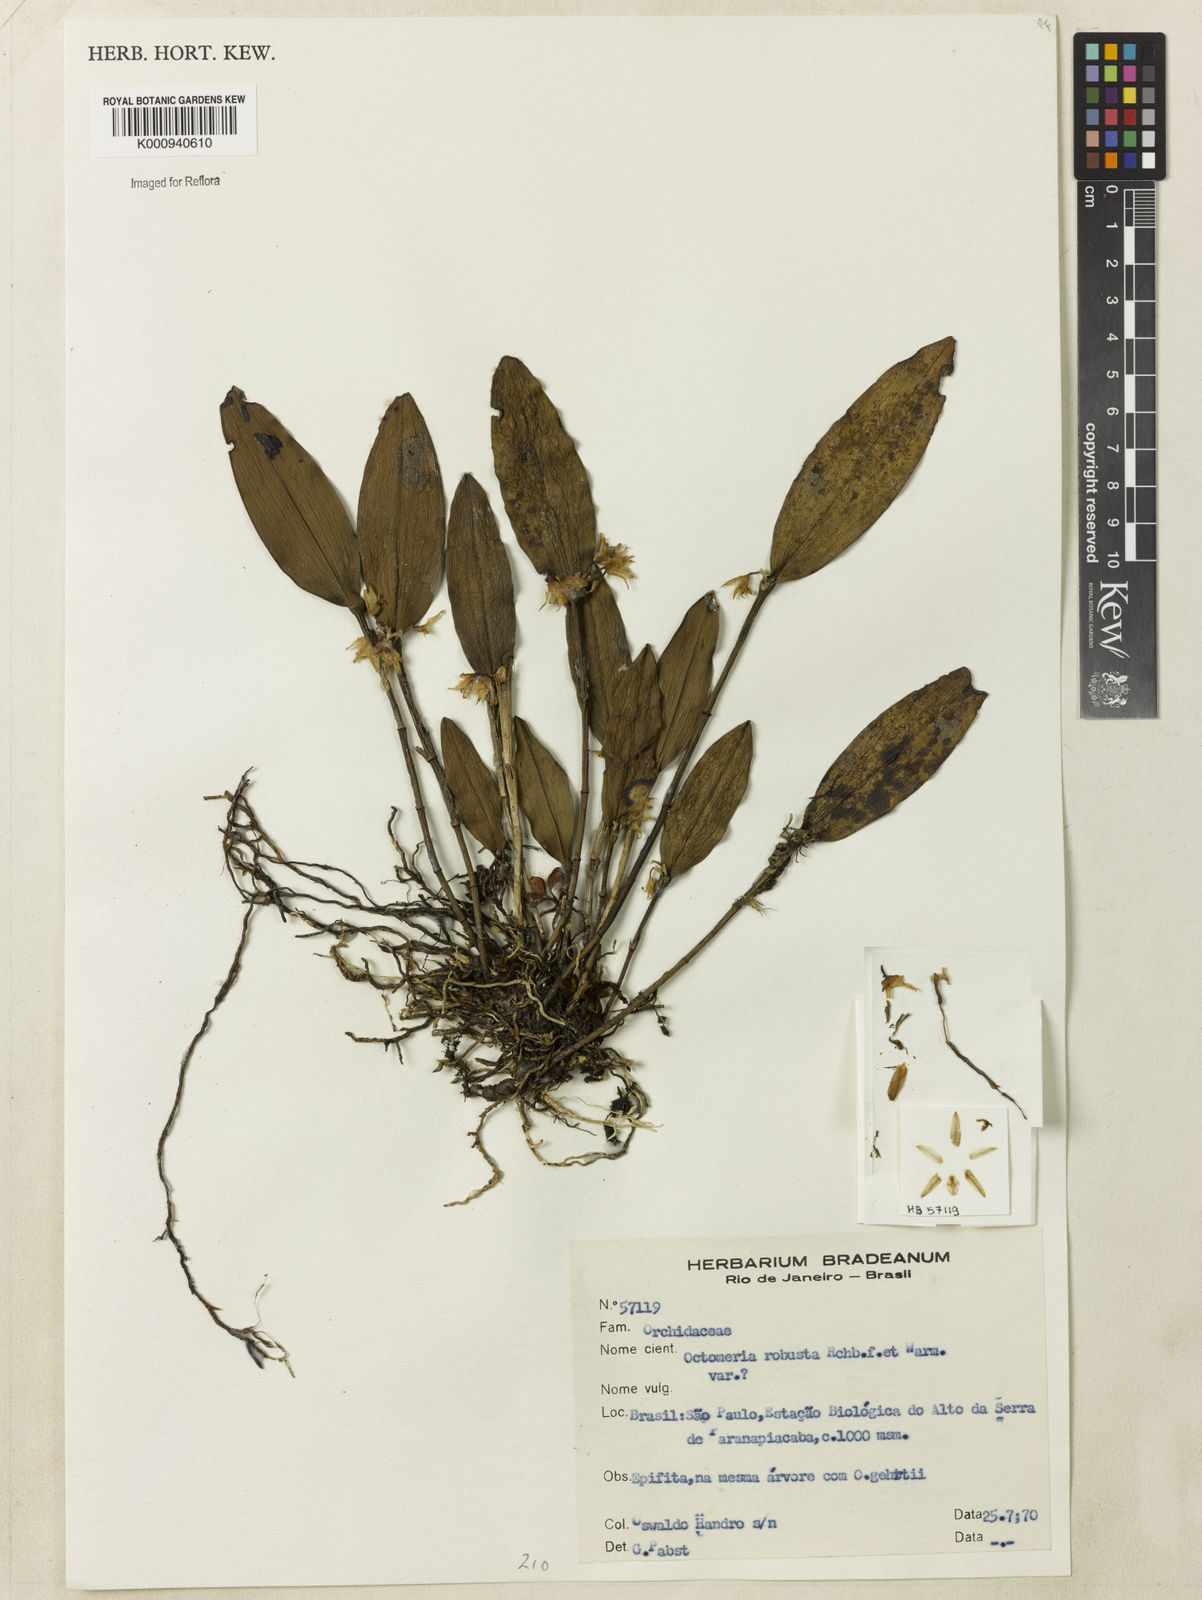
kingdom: Plantae
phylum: Tracheophyta
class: Liliopsida
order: Asparagales
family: Orchidaceae
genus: Octomeria
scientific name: Octomeria grandiflora
